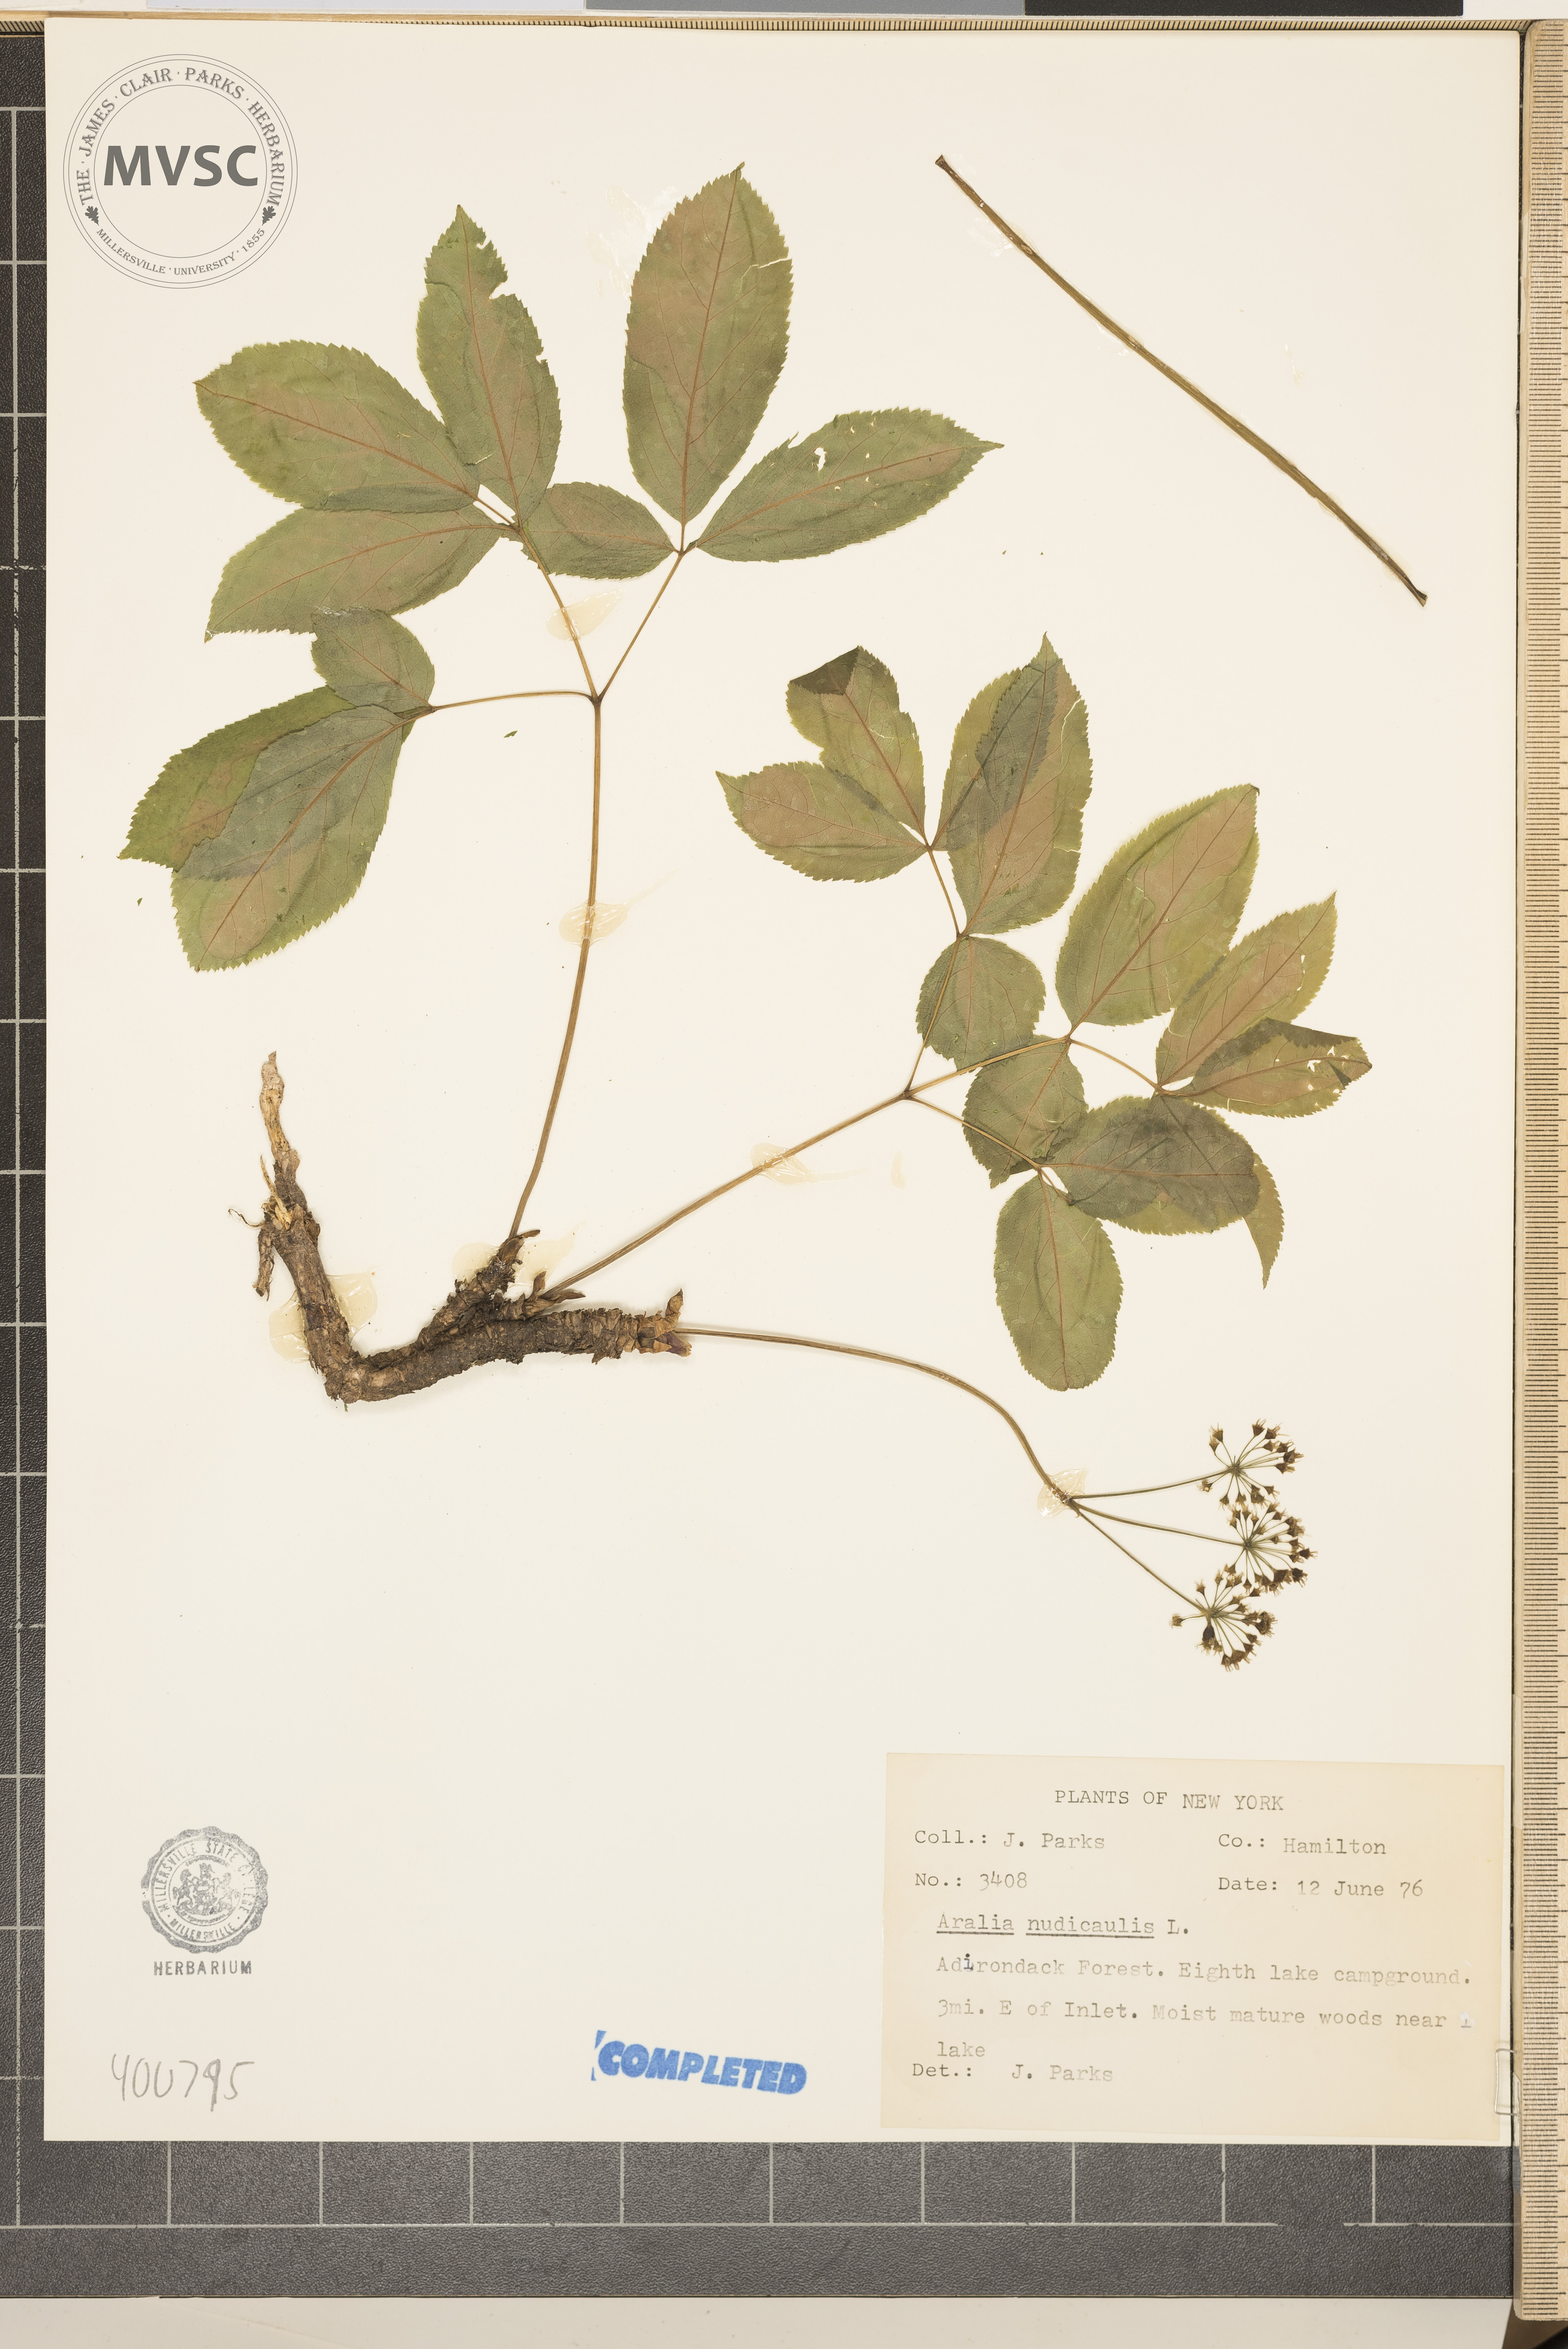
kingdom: Plantae
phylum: Tracheophyta
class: Magnoliopsida
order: Apiales
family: Araliaceae
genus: Aralia
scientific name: Aralia nudicaulis
